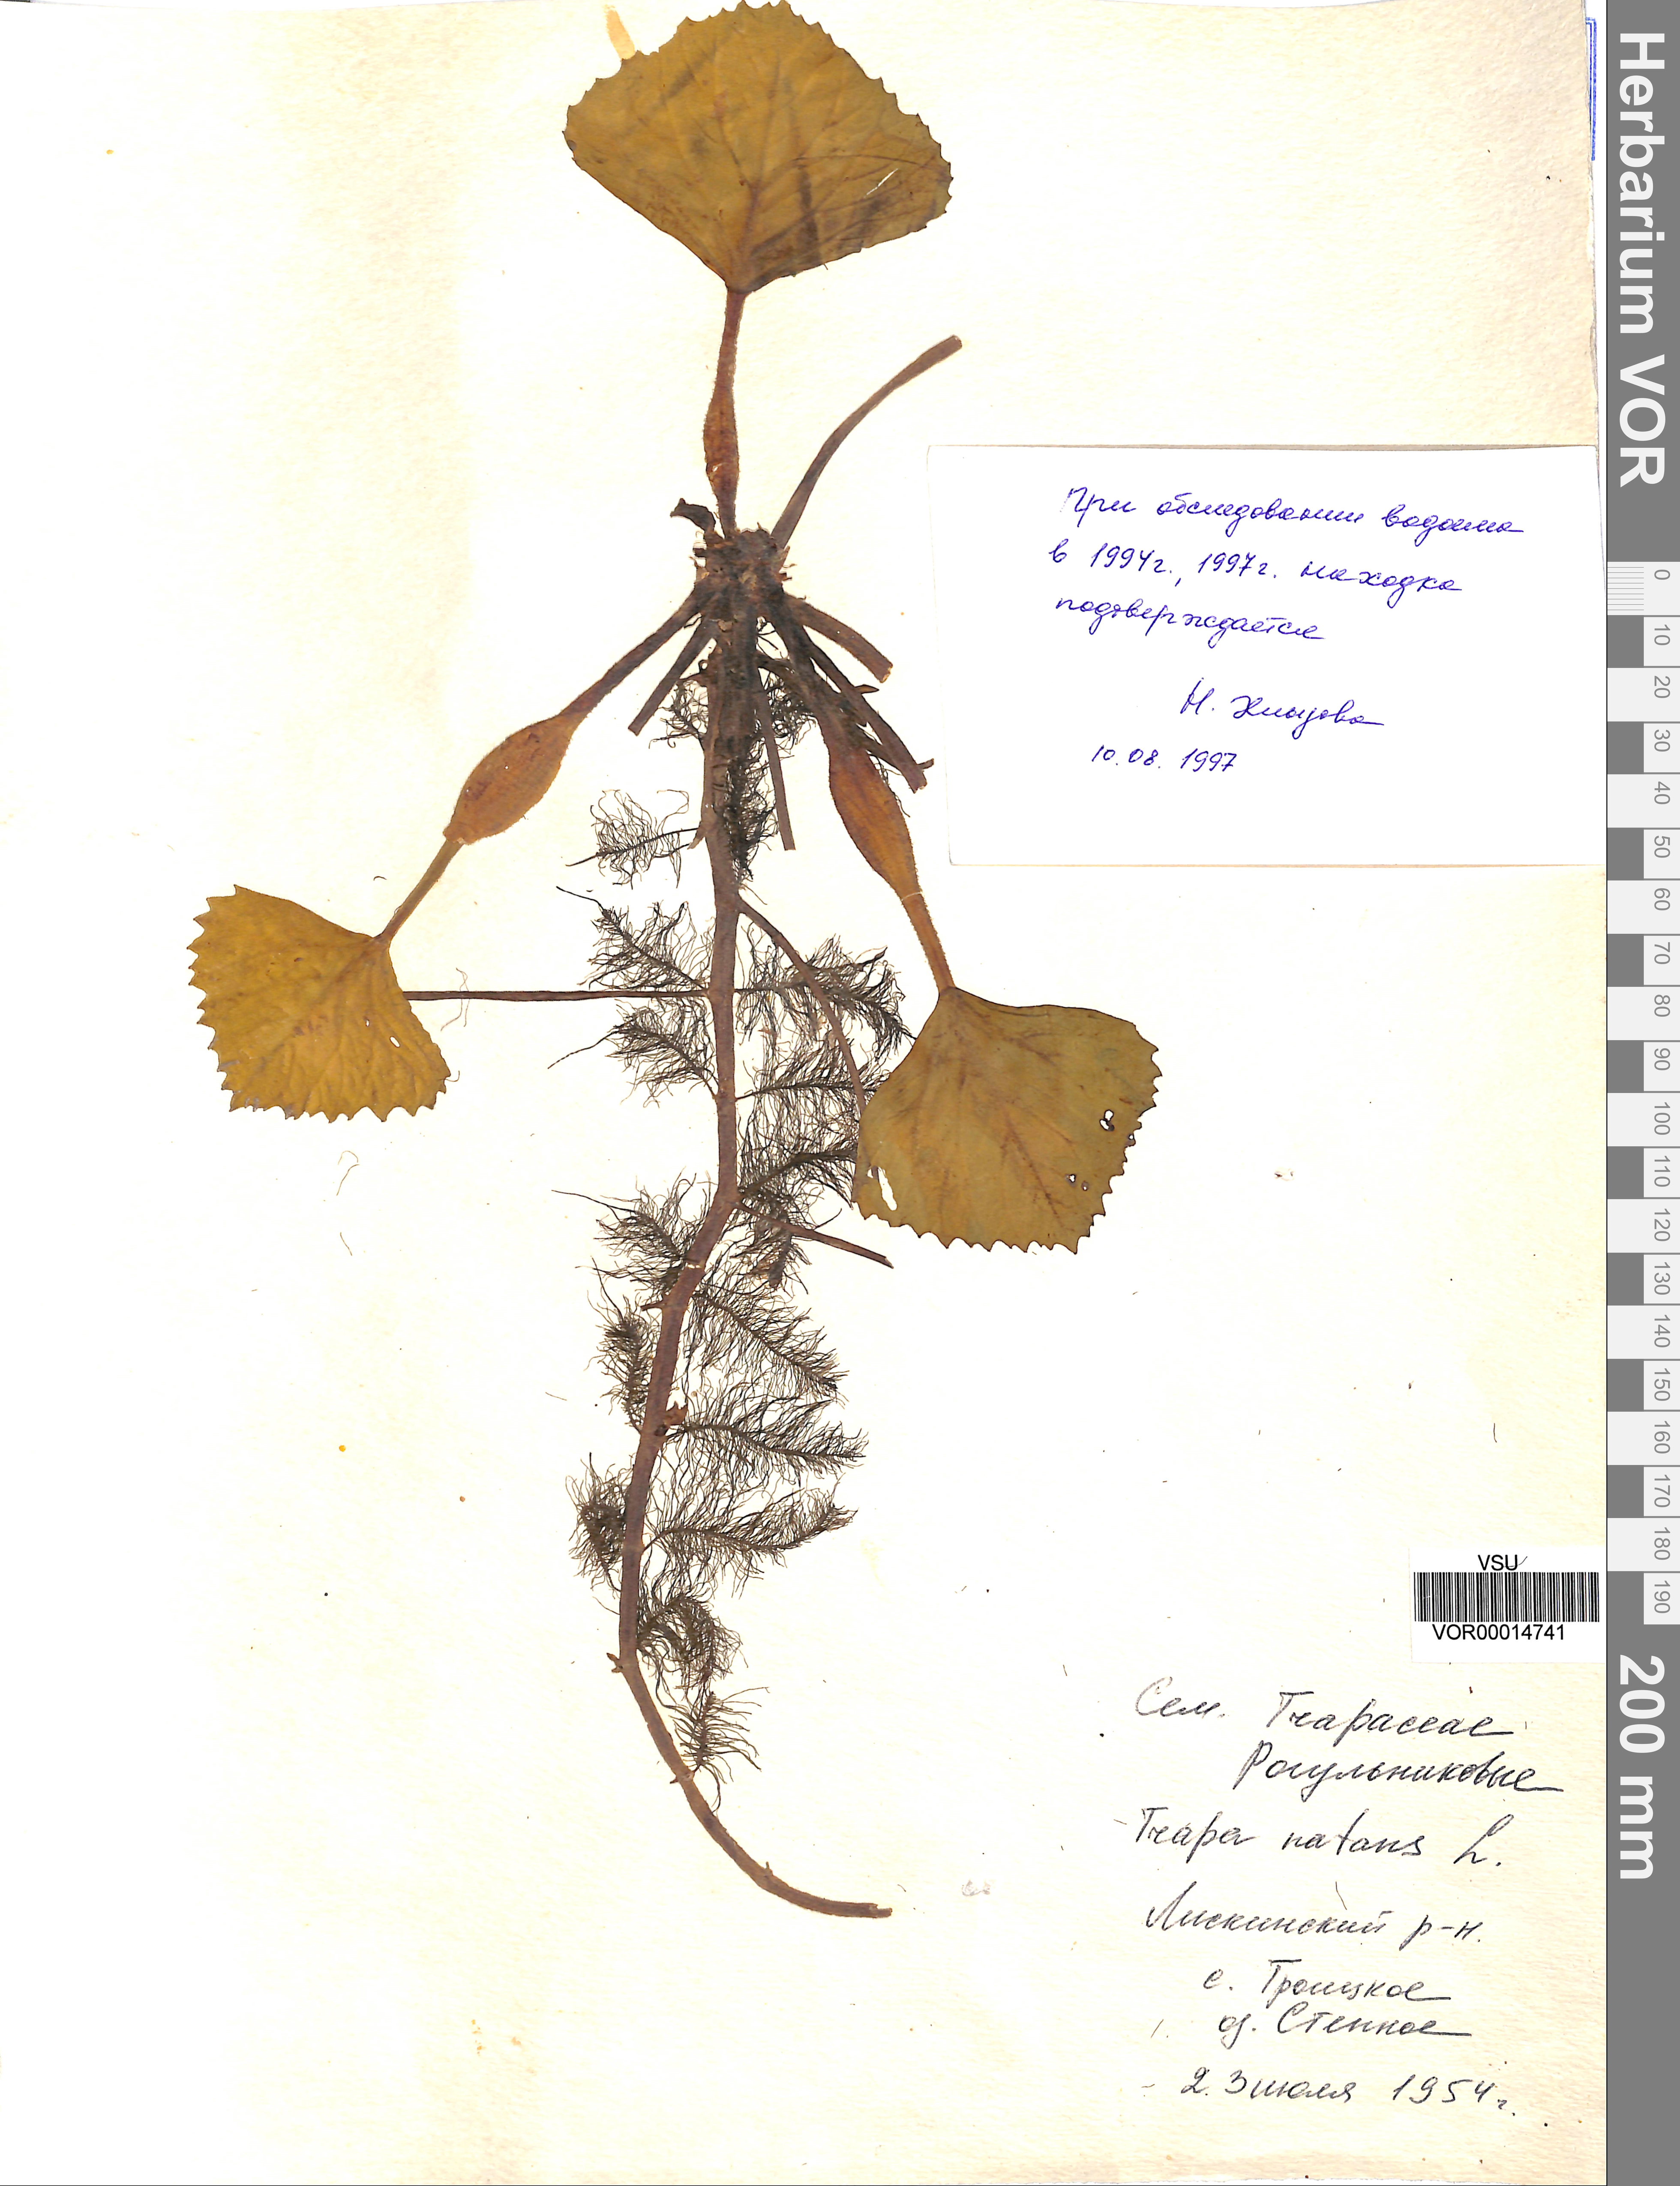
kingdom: Plantae
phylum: Tracheophyta
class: Magnoliopsida
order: Myrtales
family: Lythraceae
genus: Trapa
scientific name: Trapa natans
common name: Water chestnut
